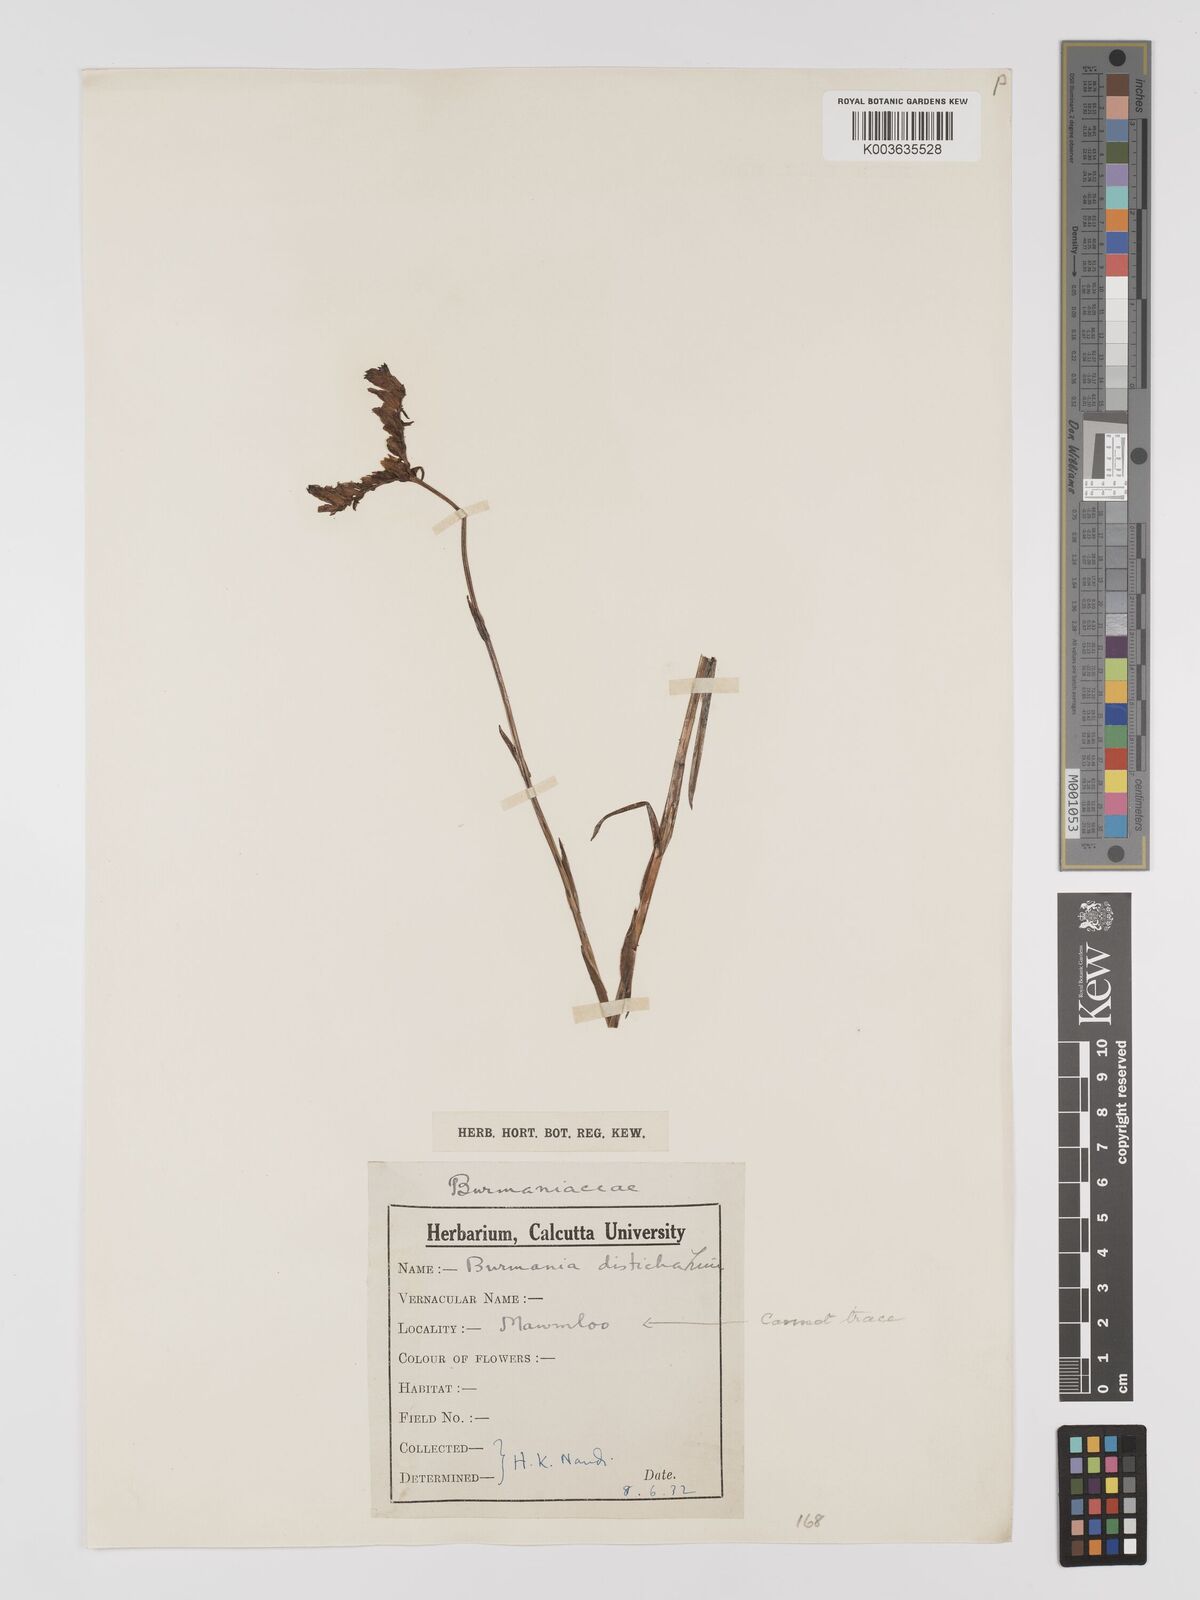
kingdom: Plantae
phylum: Tracheophyta
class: Liliopsida
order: Dioscoreales
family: Burmanniaceae
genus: Burmannia
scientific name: Burmannia disticha
